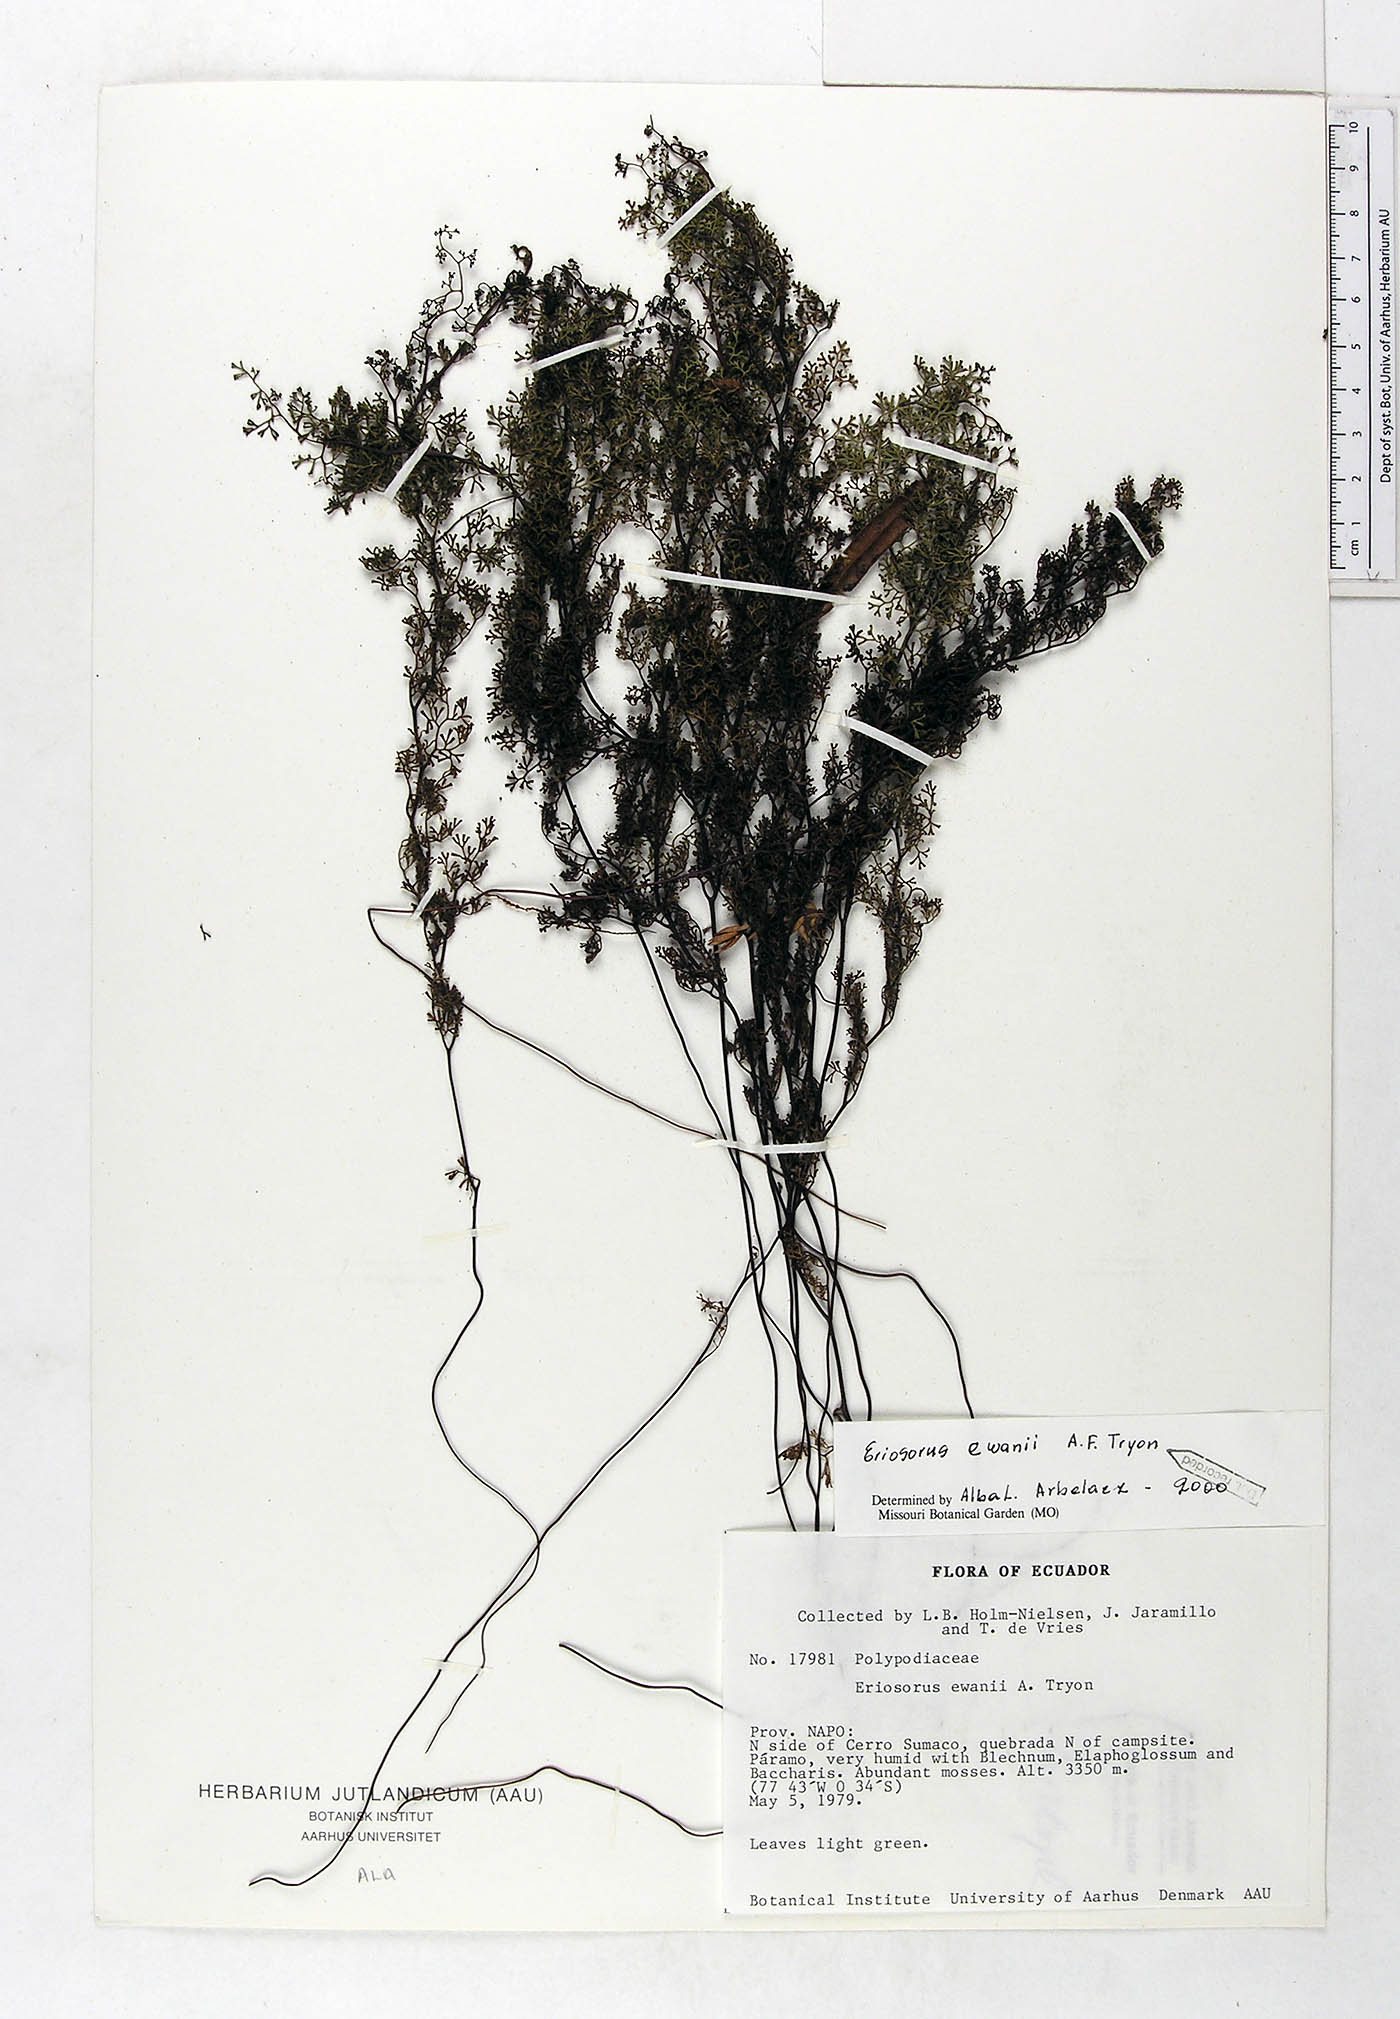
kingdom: Plantae
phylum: Tracheophyta
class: Polypodiopsida
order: Polypodiales
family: Pteridaceae
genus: Jamesonia
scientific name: Jamesonia ewanii
